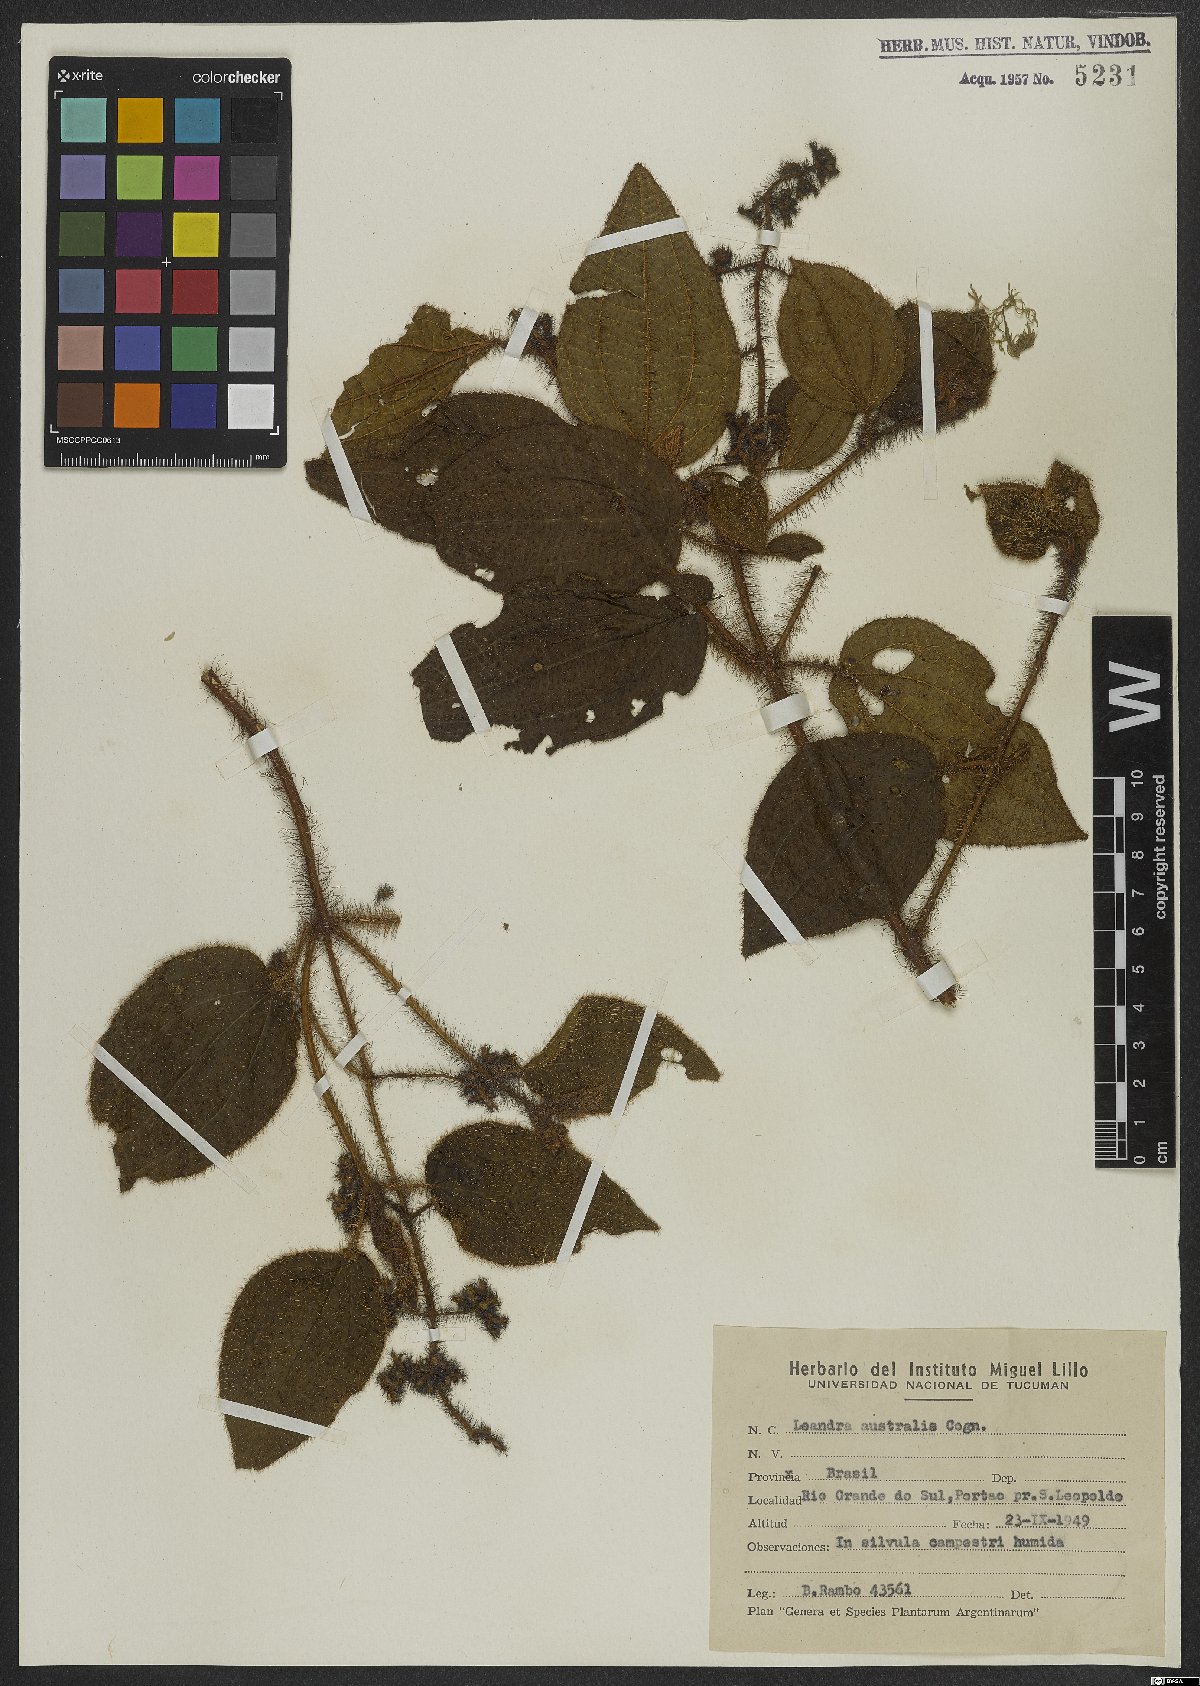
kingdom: Plantae
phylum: Tracheophyta
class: Magnoliopsida
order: Myrtales
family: Melastomataceae
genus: Miconia
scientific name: Miconia australis
